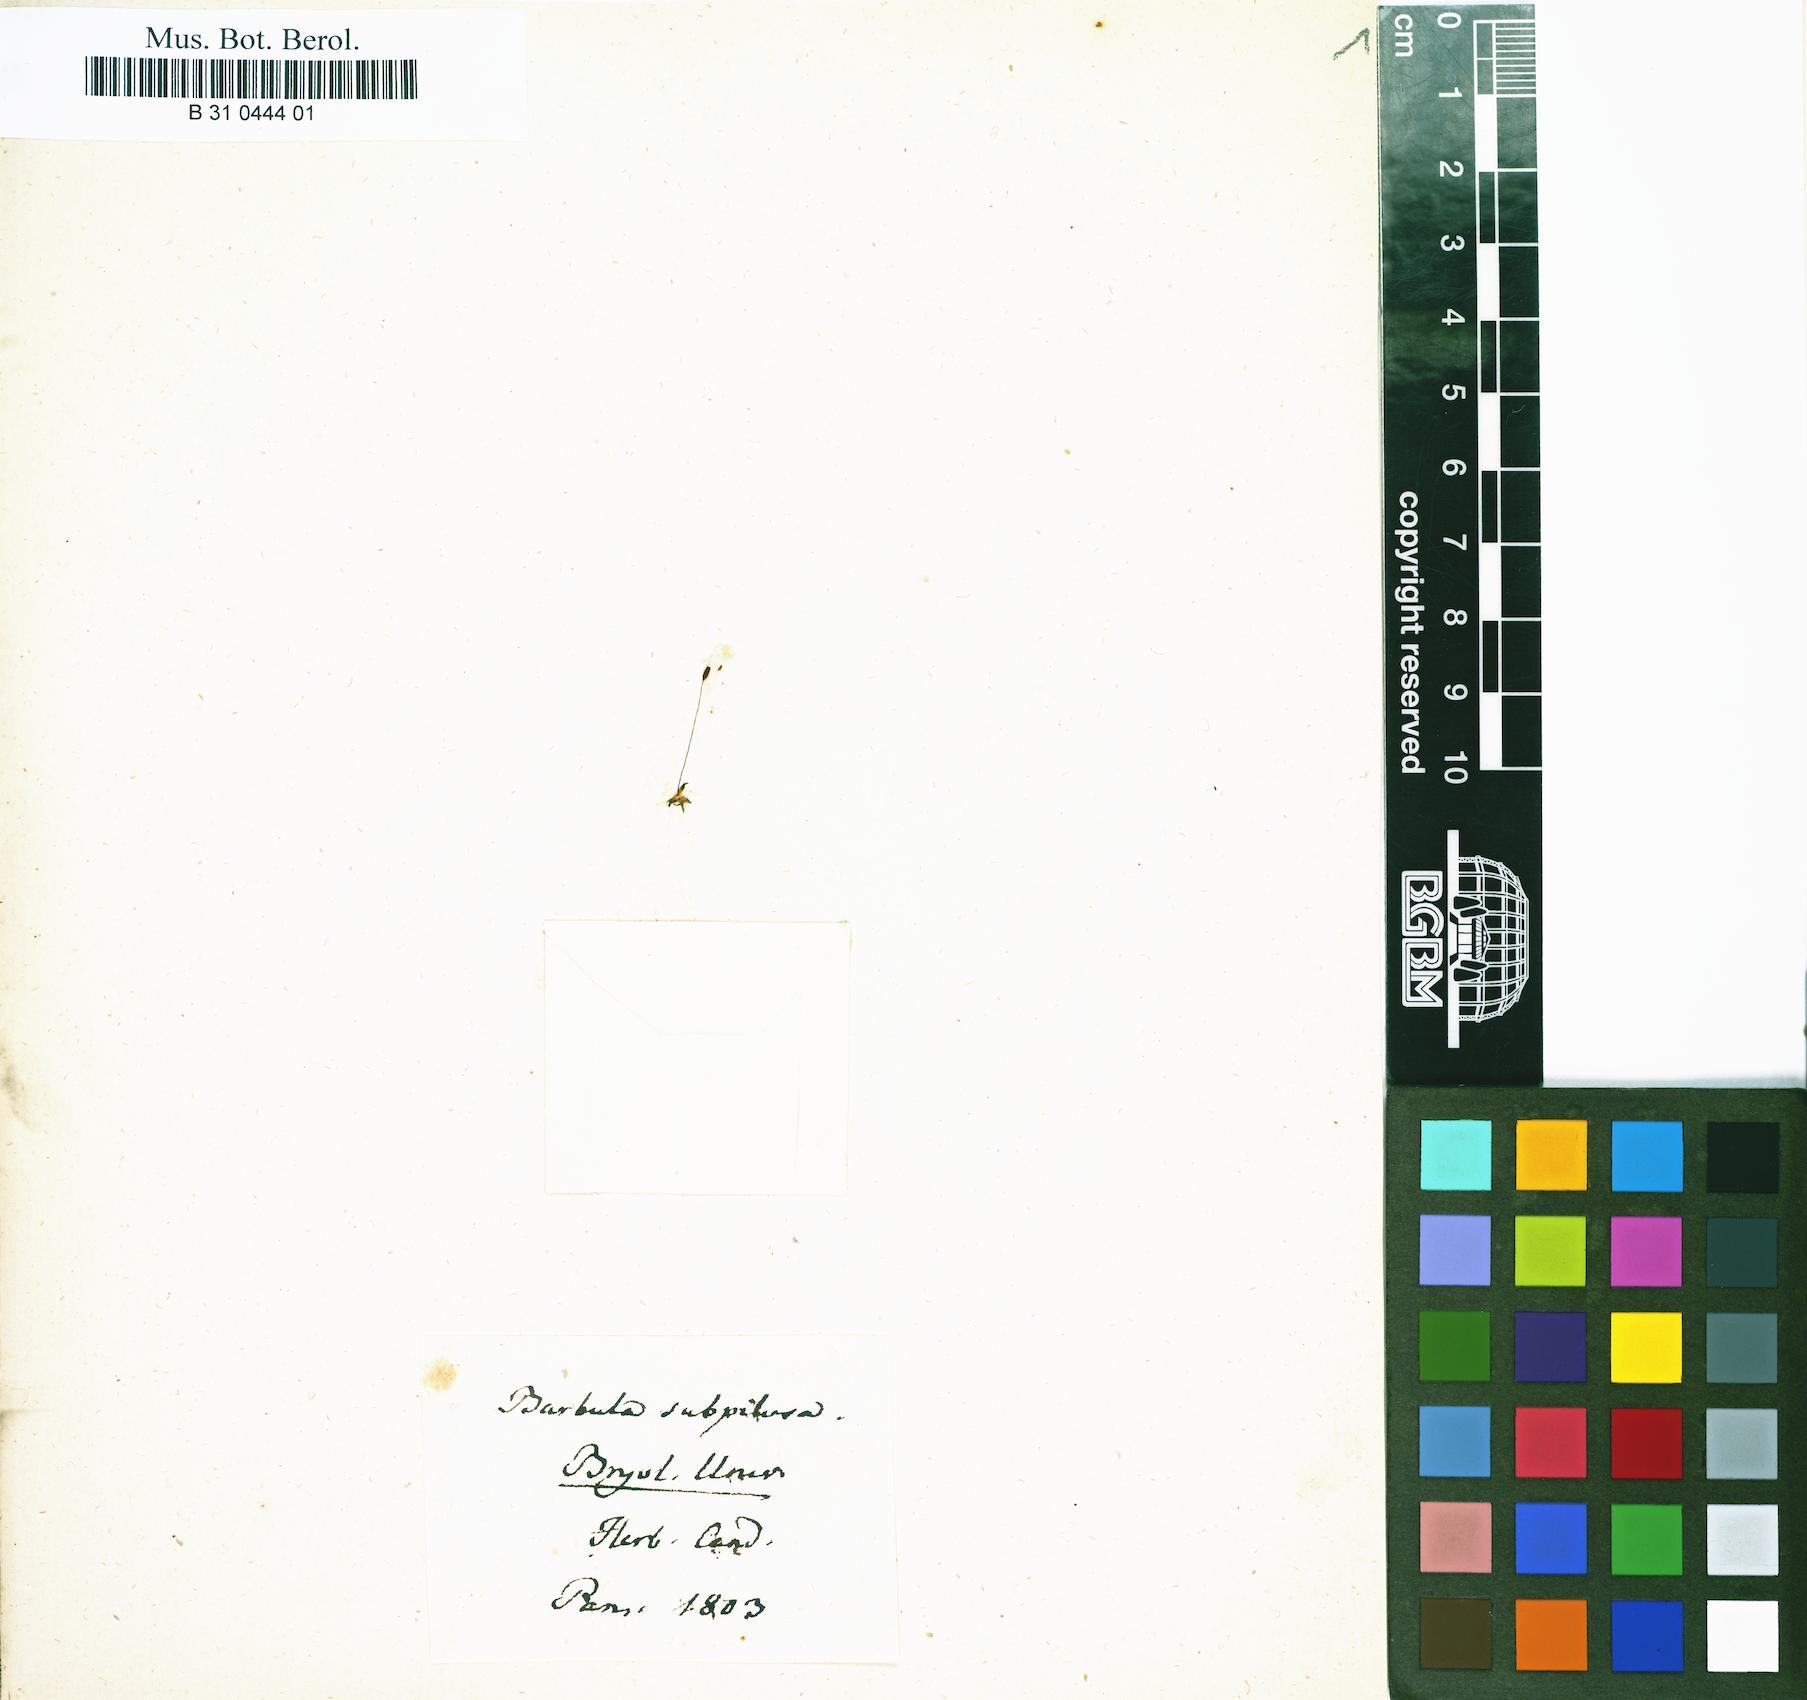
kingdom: Plantae
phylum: Bryophyta
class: Bryopsida
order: Pottiales
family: Pottiaceae
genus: Tortula
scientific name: Tortula marginata
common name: Bordered screw-moss
